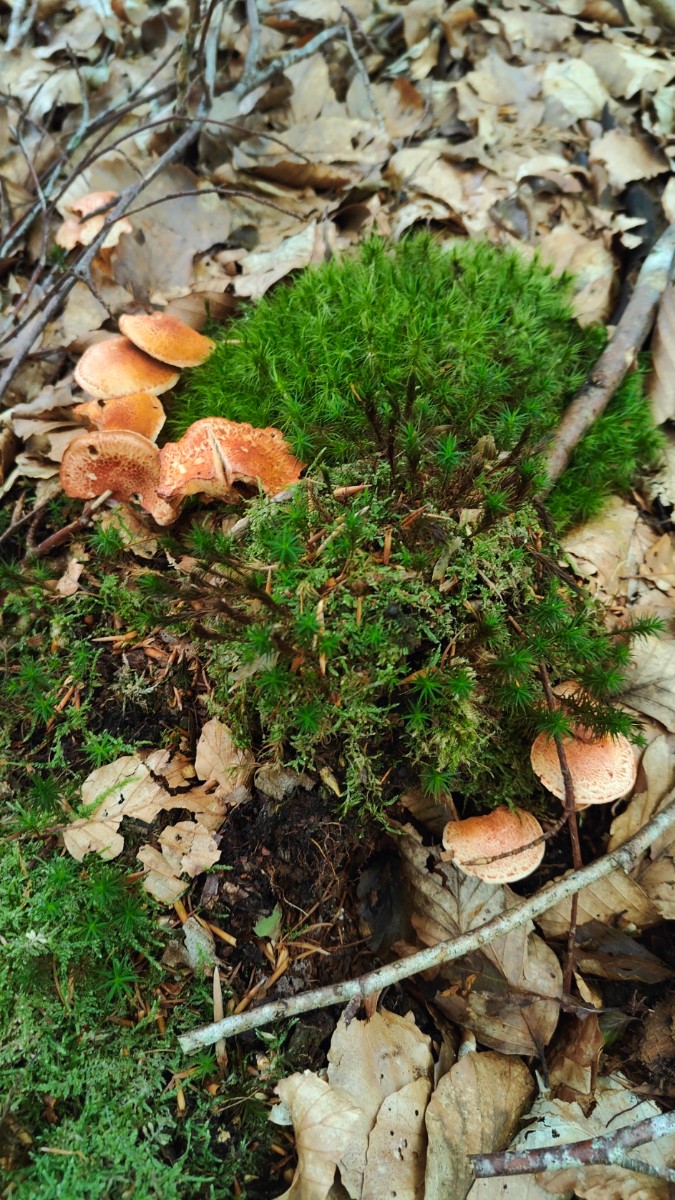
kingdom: Fungi
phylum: Basidiomycota
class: Agaricomycetes
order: Agaricales
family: Cortinariaceae
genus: Cortinarius
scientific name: Cortinarius bolaris
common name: cinnoberskællet slørhat
